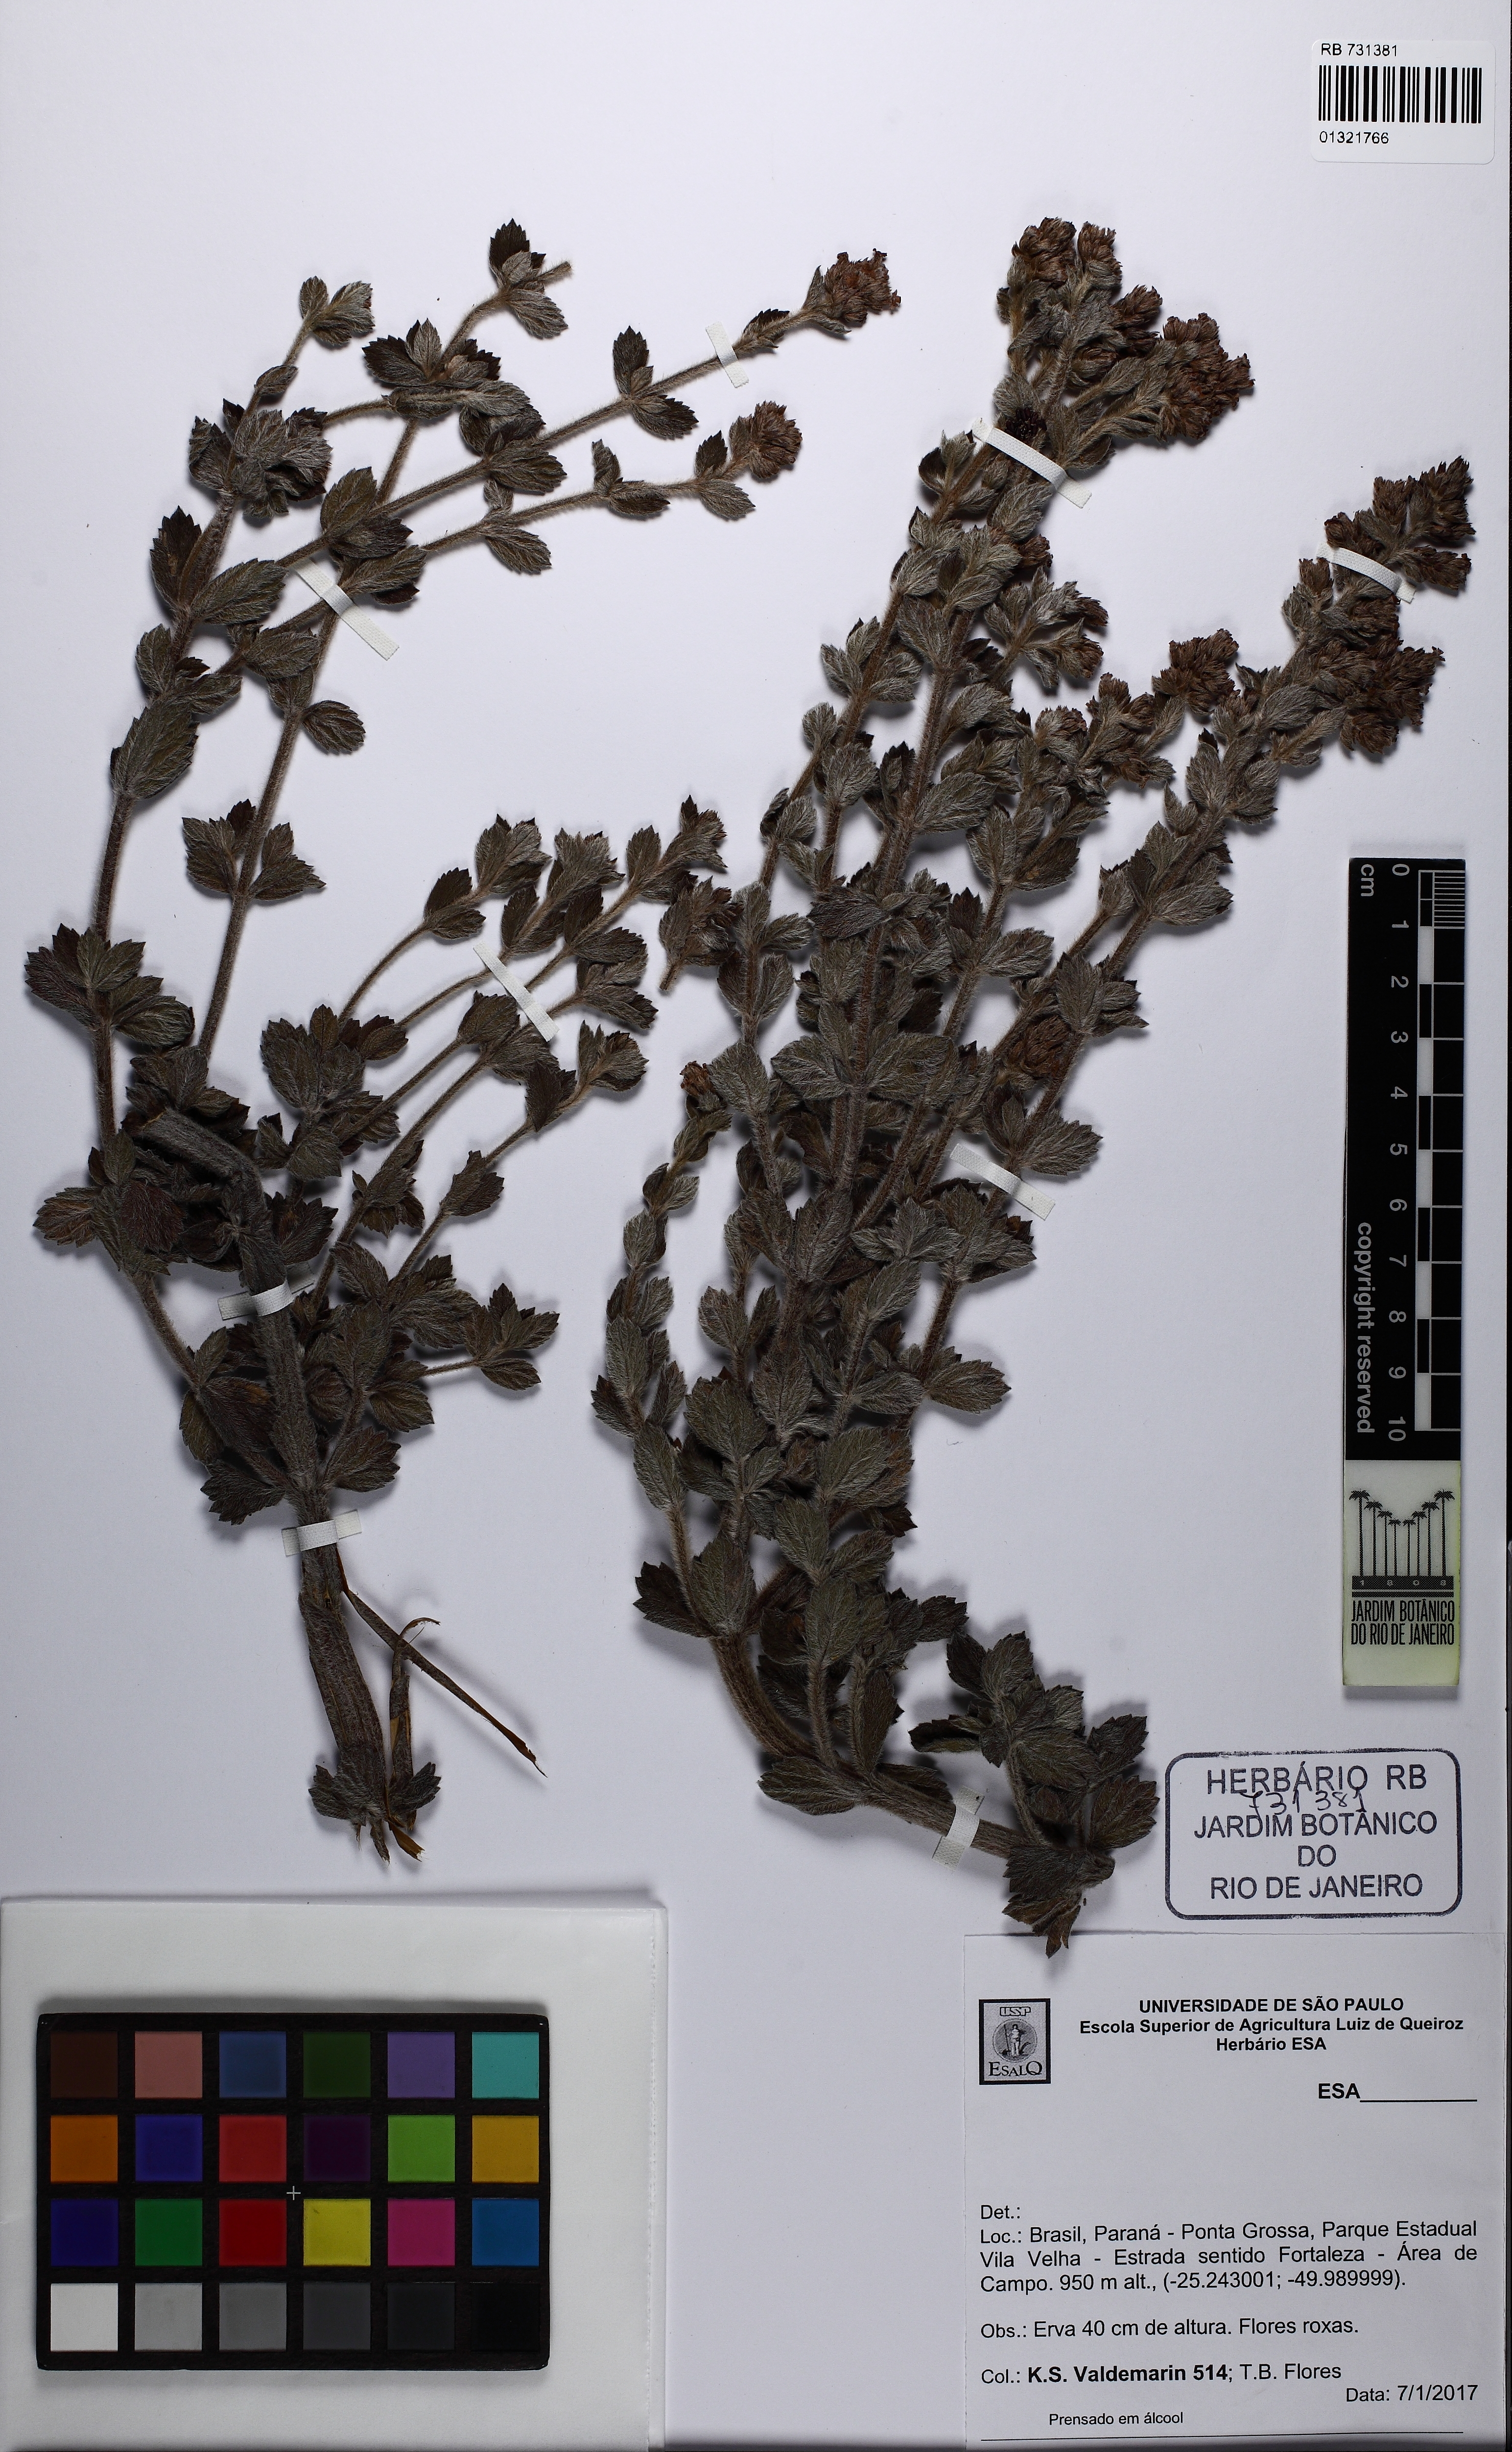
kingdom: Plantae
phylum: Tracheophyta
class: Magnoliopsida
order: Lamiales
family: Verbenaceae
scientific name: Verbenaceae
